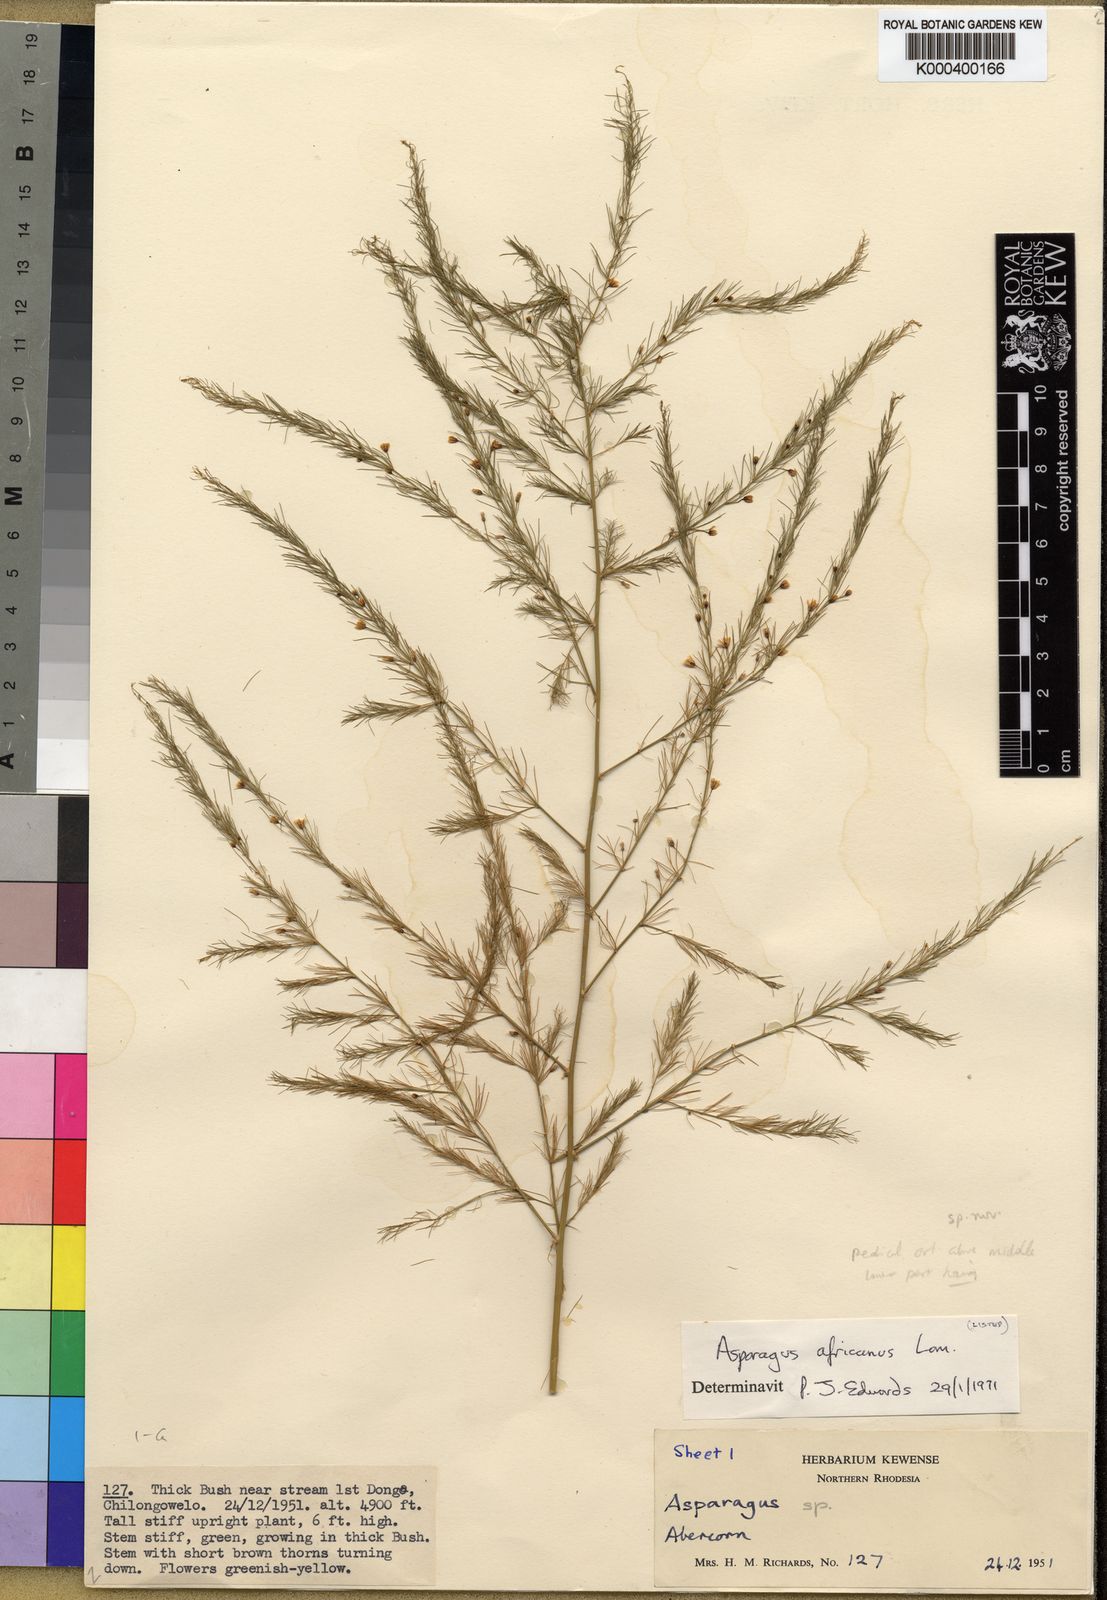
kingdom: Plantae
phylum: Tracheophyta
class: Liliopsida
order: Asparagales
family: Asparagaceae
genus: Asparagus
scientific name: Asparagus
